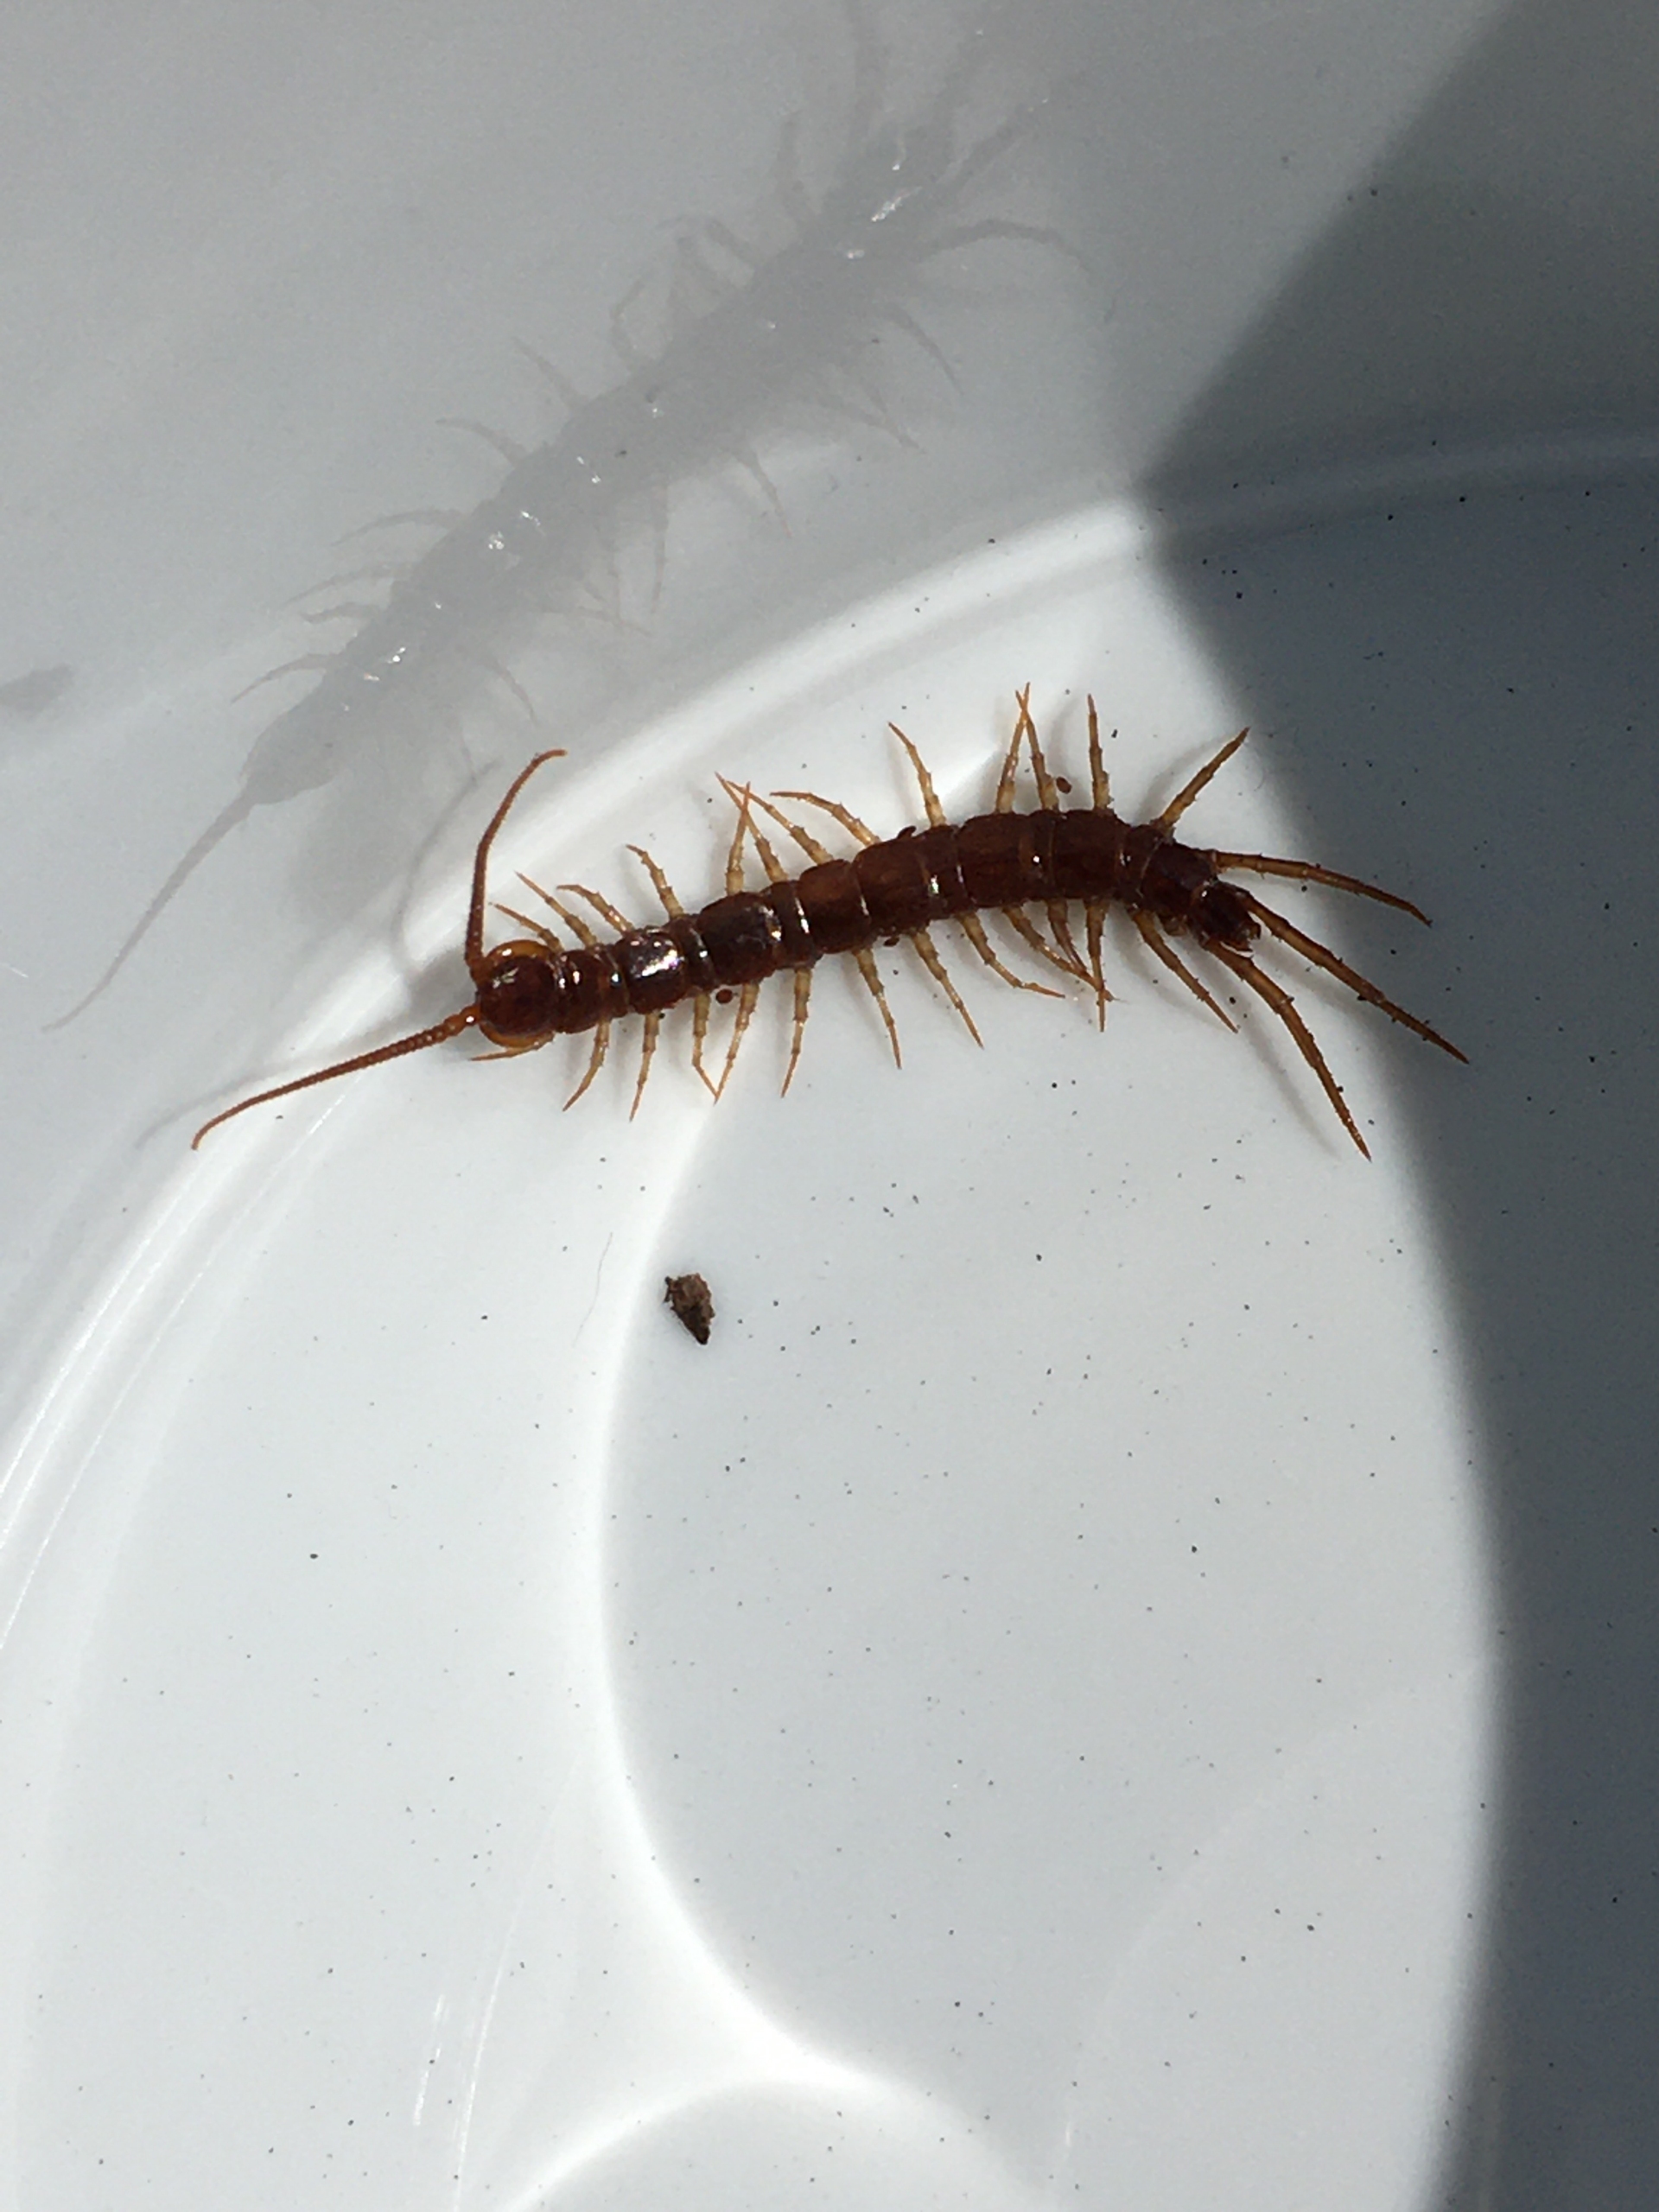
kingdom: Animalia
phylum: Arthropoda
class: Chilopoda
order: Lithobiomorpha
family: Lithobiidae
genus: Lithobius
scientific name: Lithobius forficatus
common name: Stenskolopender
